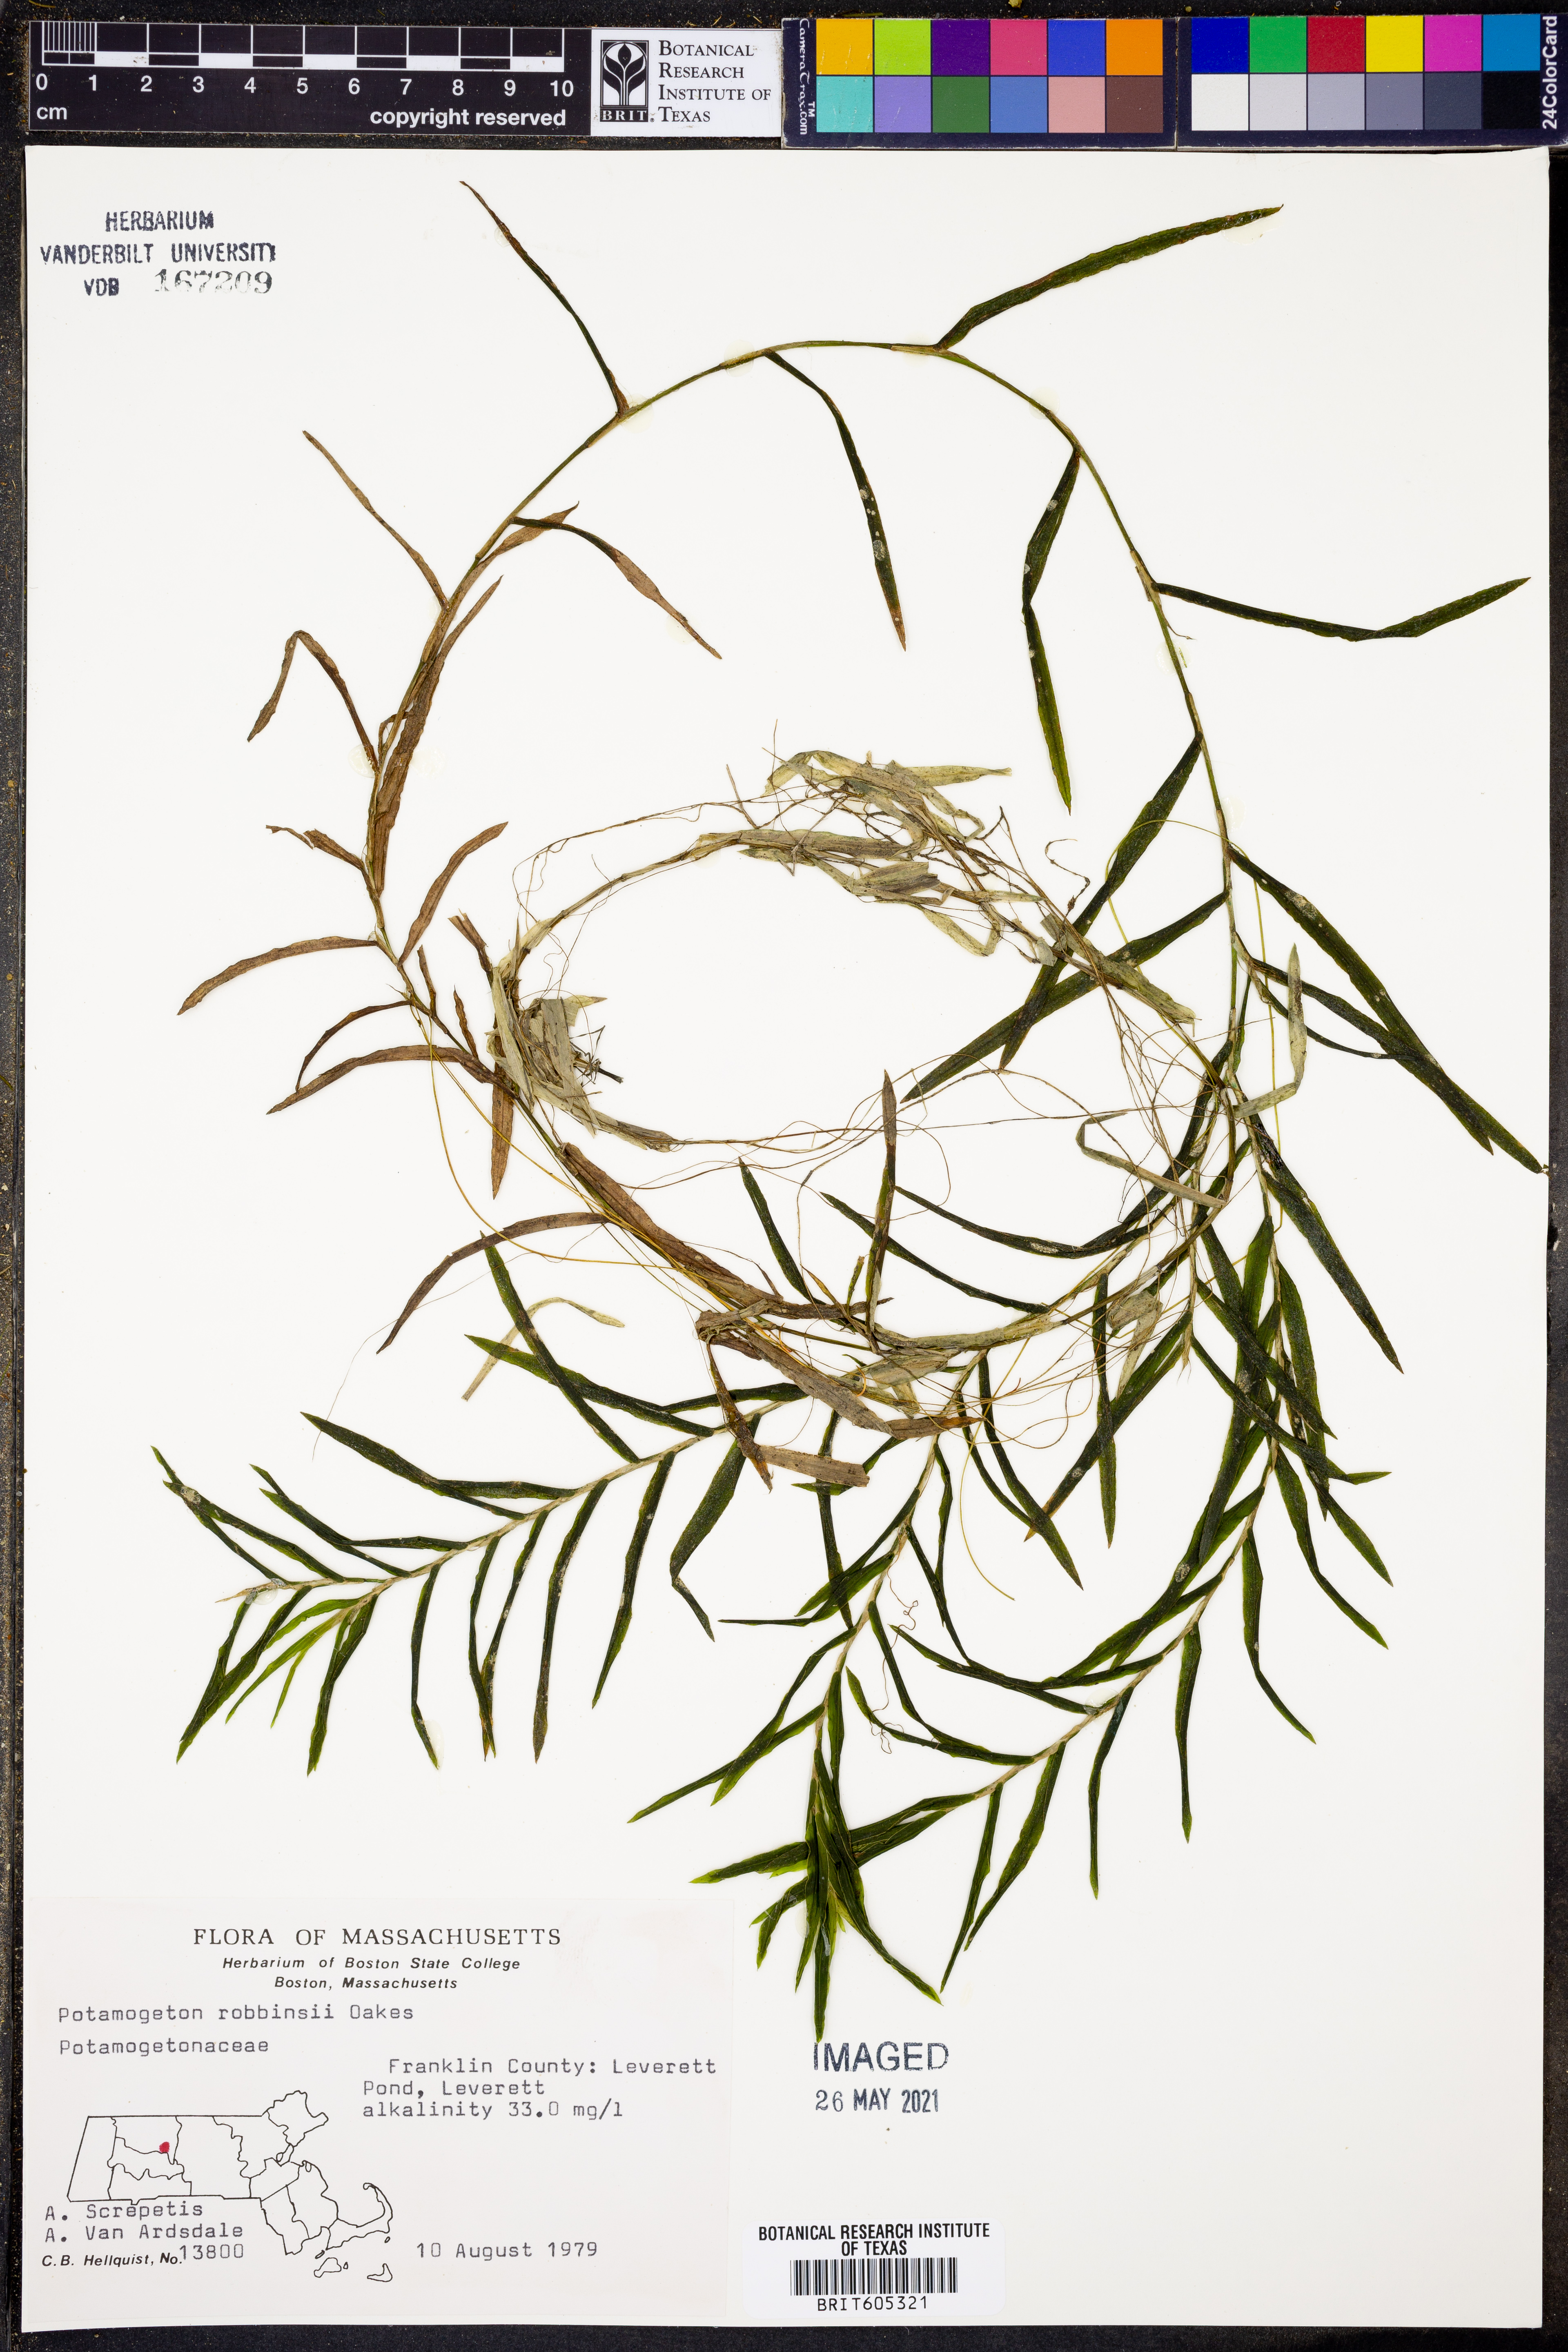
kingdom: Plantae
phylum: Tracheophyta
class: Liliopsida
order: Alismatales
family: Potamogetonaceae
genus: Potamogeton
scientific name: Potamogeton robbinsii
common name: Fern pondweed
